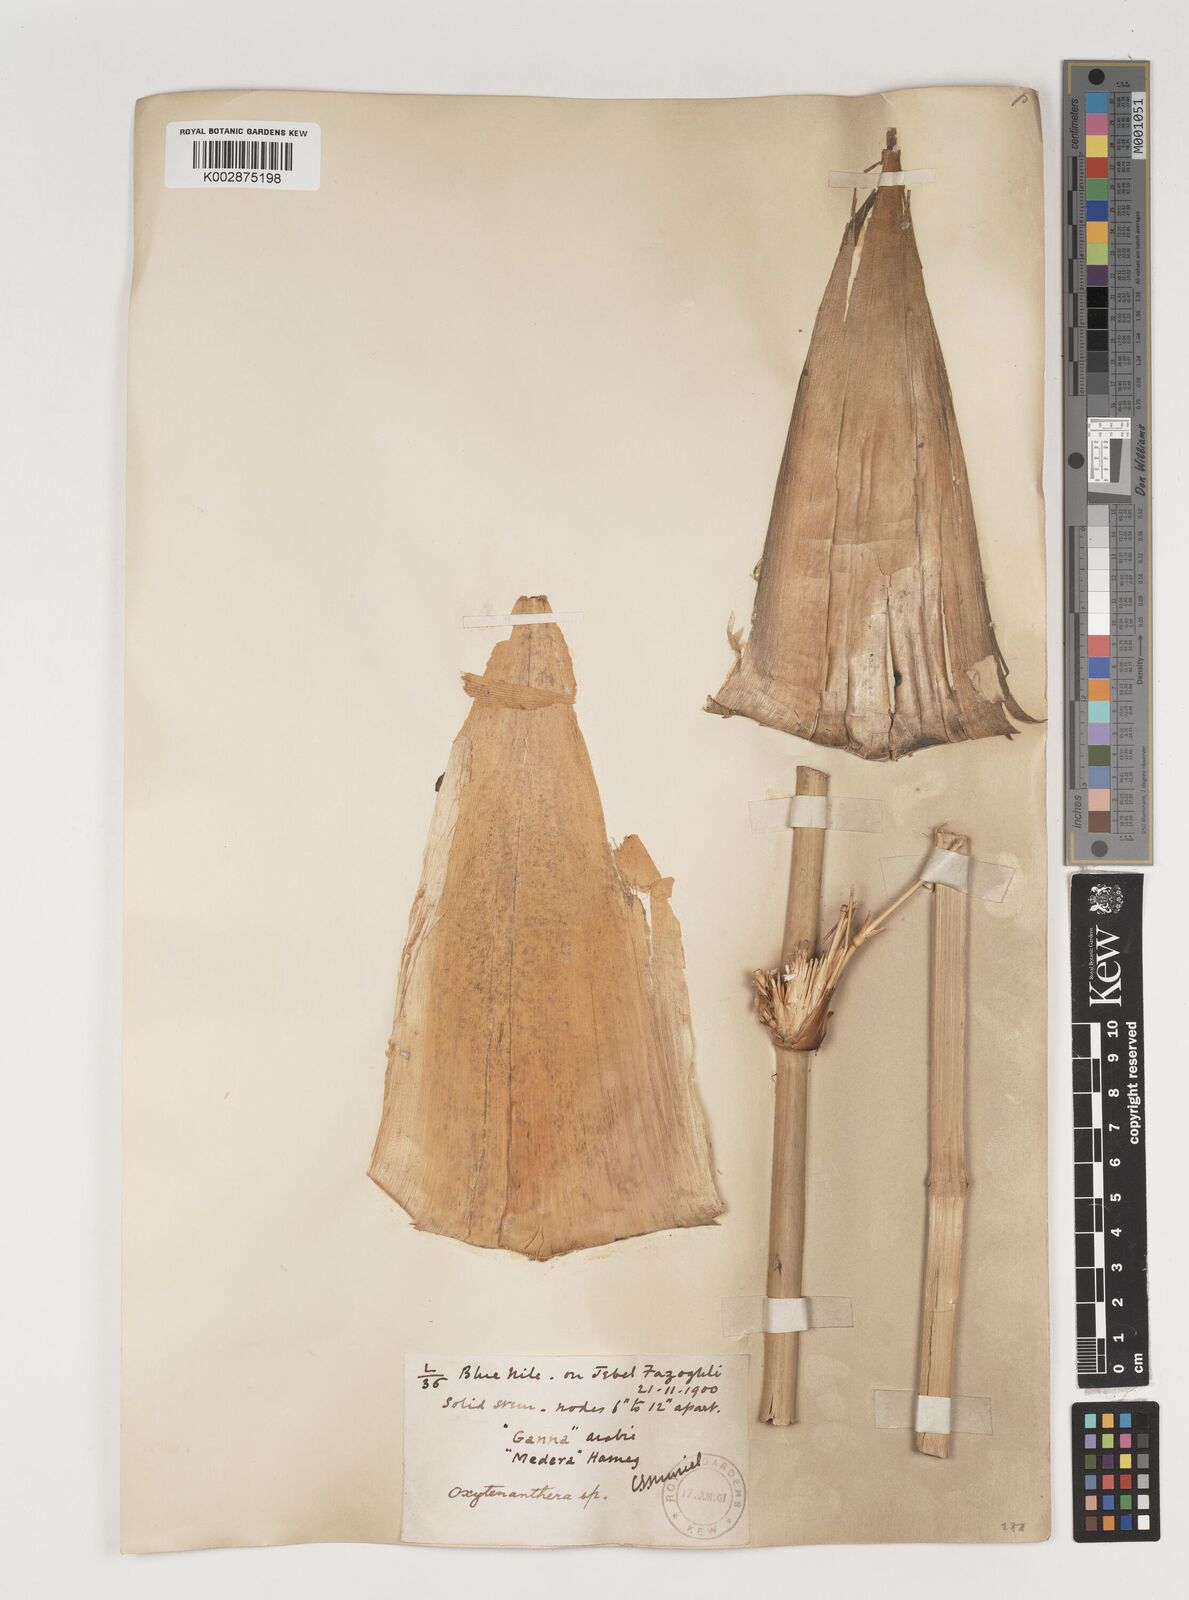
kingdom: Plantae
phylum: Tracheophyta
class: Liliopsida
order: Poales
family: Poaceae
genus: Oxytenanthera
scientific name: Oxytenanthera abyssinica
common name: Wine bamboo
